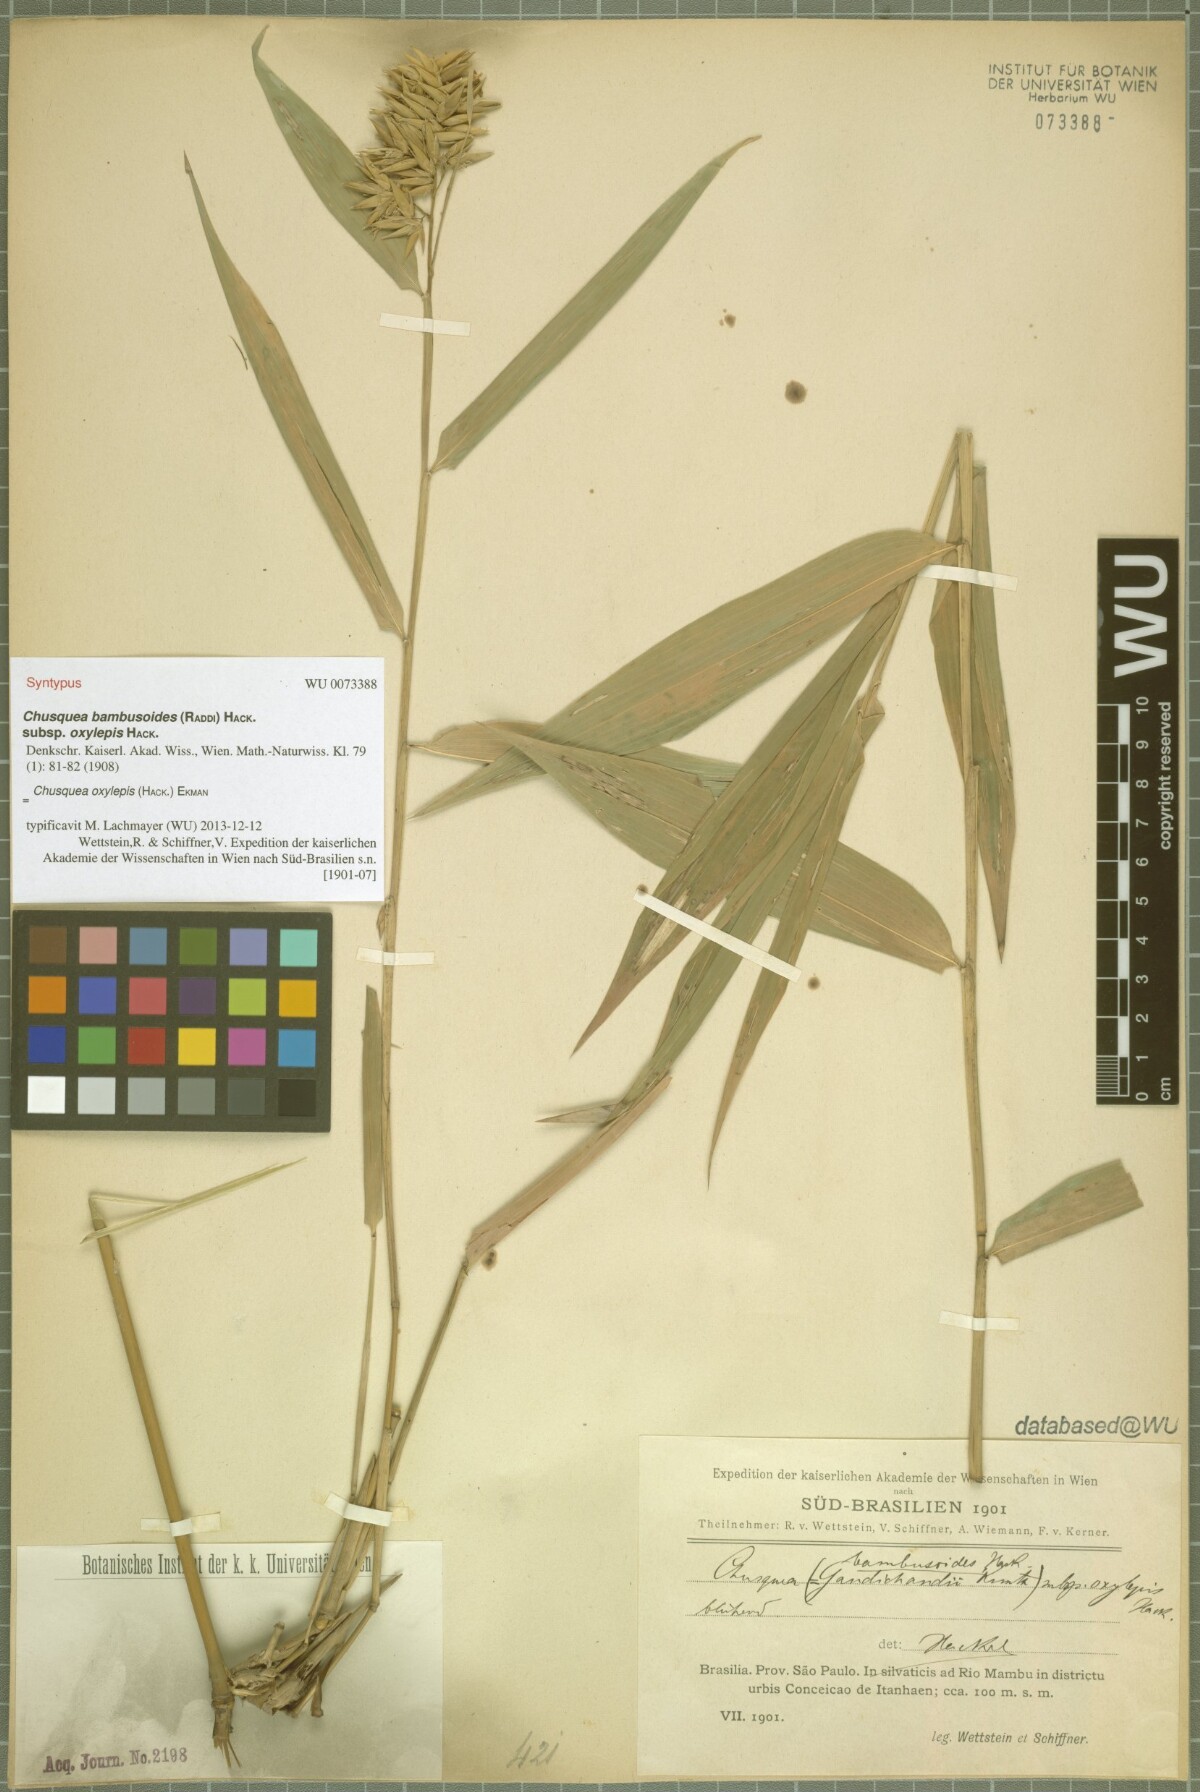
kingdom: Plantae
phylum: Tracheophyta
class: Liliopsida
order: Poales
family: Poaceae
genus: Chusquea
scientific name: Chusquea oxylepis
